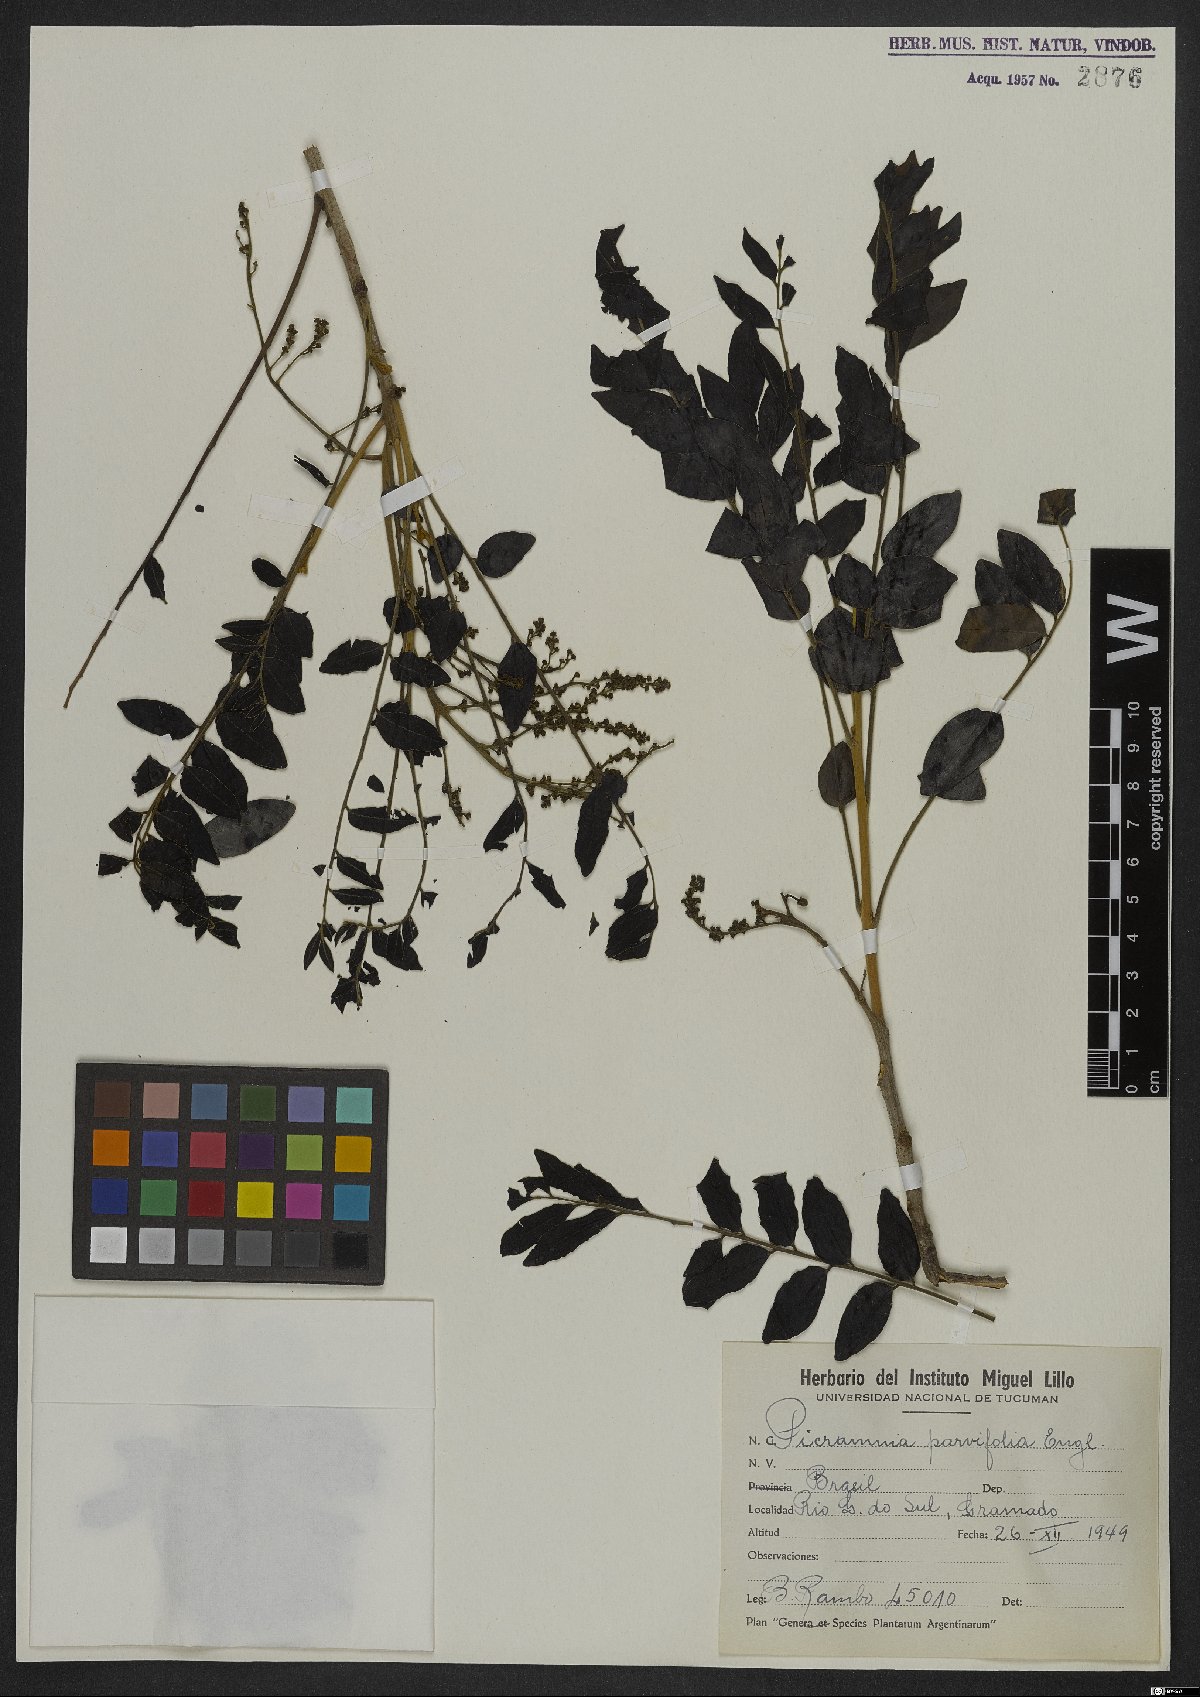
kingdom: Plantae
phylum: Tracheophyta
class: Magnoliopsida
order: Picramniales
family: Picramniaceae
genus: Picramnia
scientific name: Picramnia parvifolia
